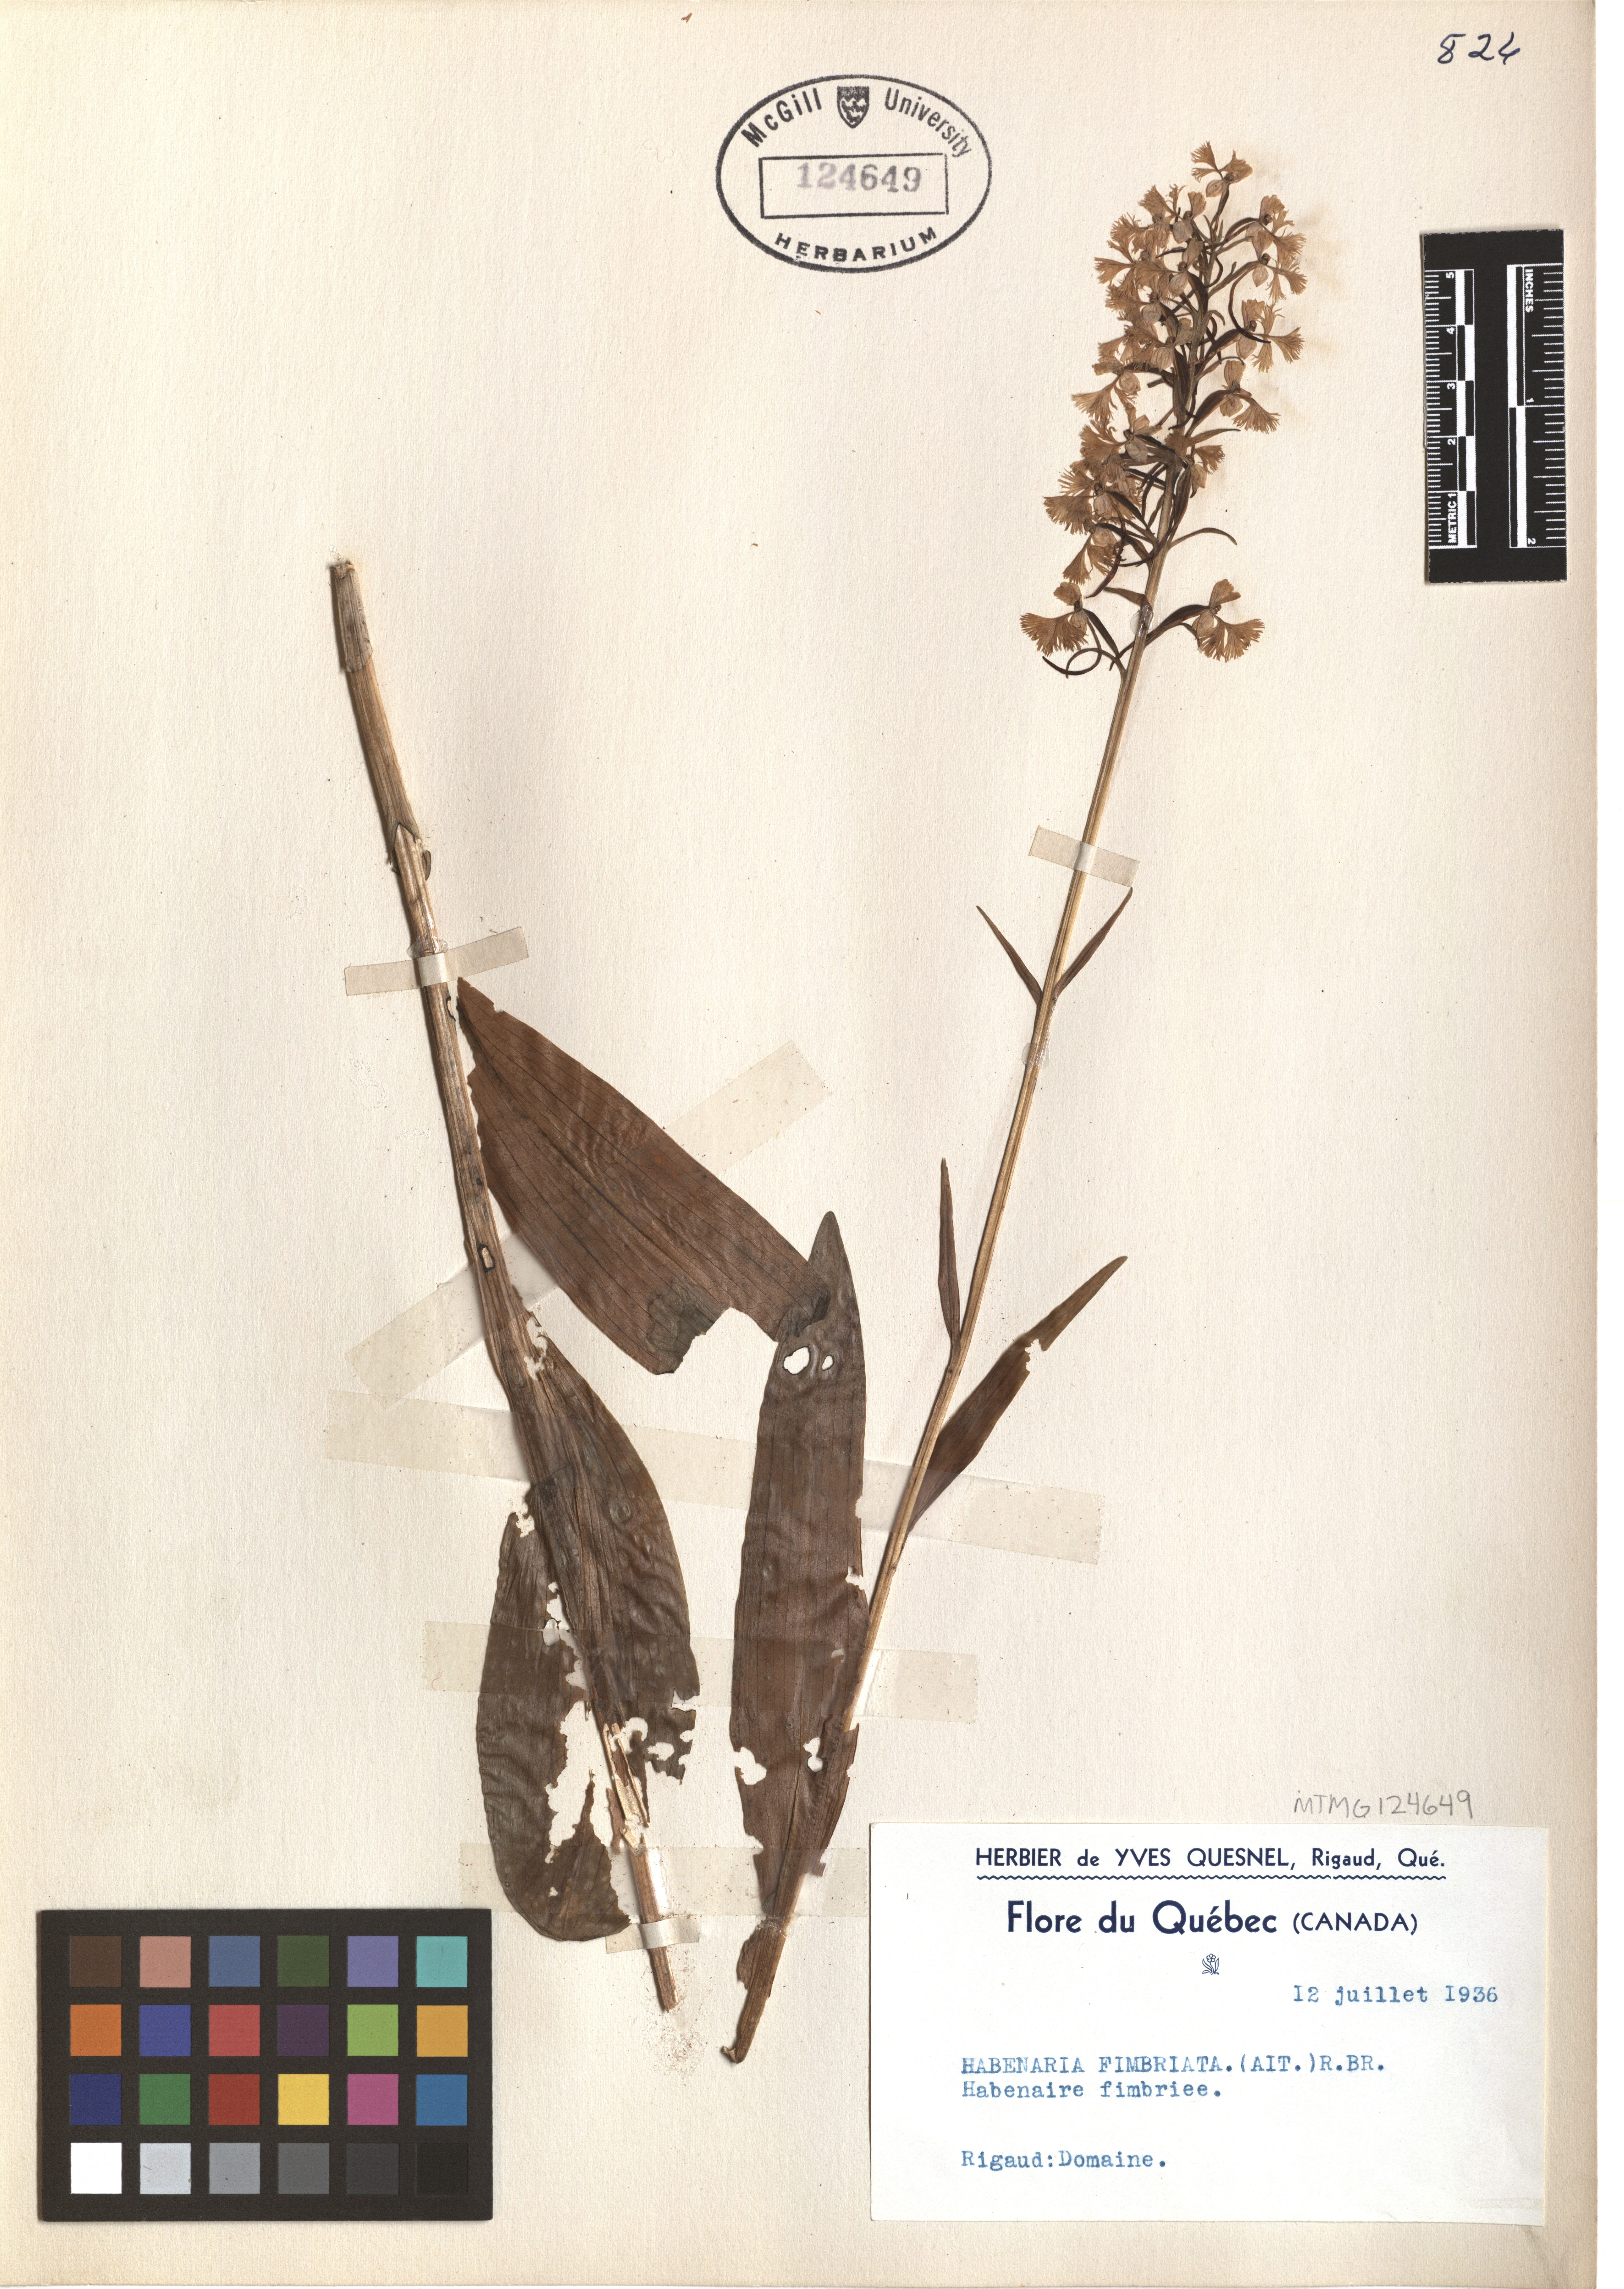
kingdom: Plantae
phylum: Tracheophyta
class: Liliopsida
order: Asparagales
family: Orchidaceae
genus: Platanthera
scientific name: Platanthera grandiflora
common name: Greater purple fringed orchid
